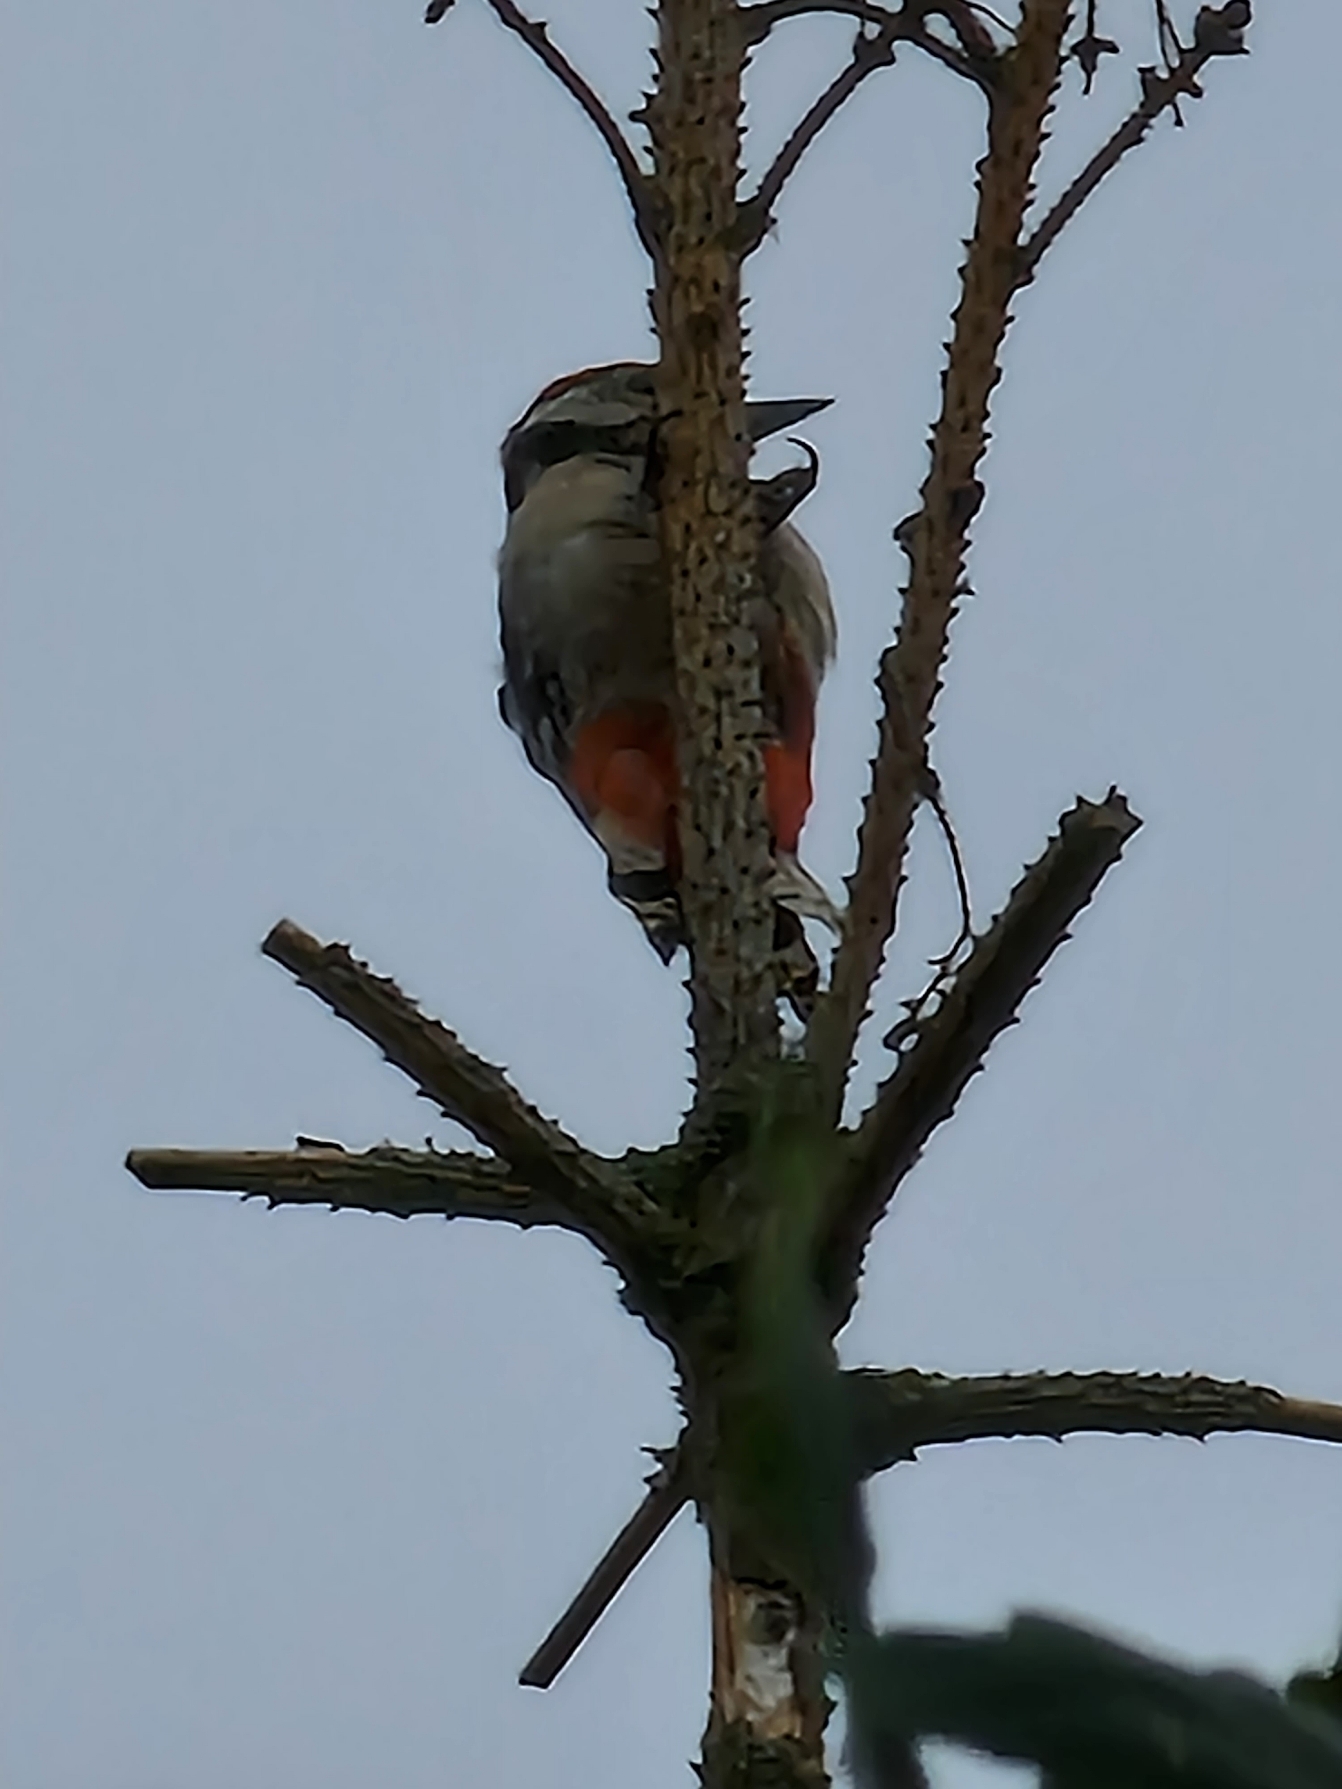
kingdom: Animalia
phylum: Chordata
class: Aves
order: Piciformes
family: Picidae
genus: Dendrocopos
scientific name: Dendrocopos major
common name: Stor flagspætte
